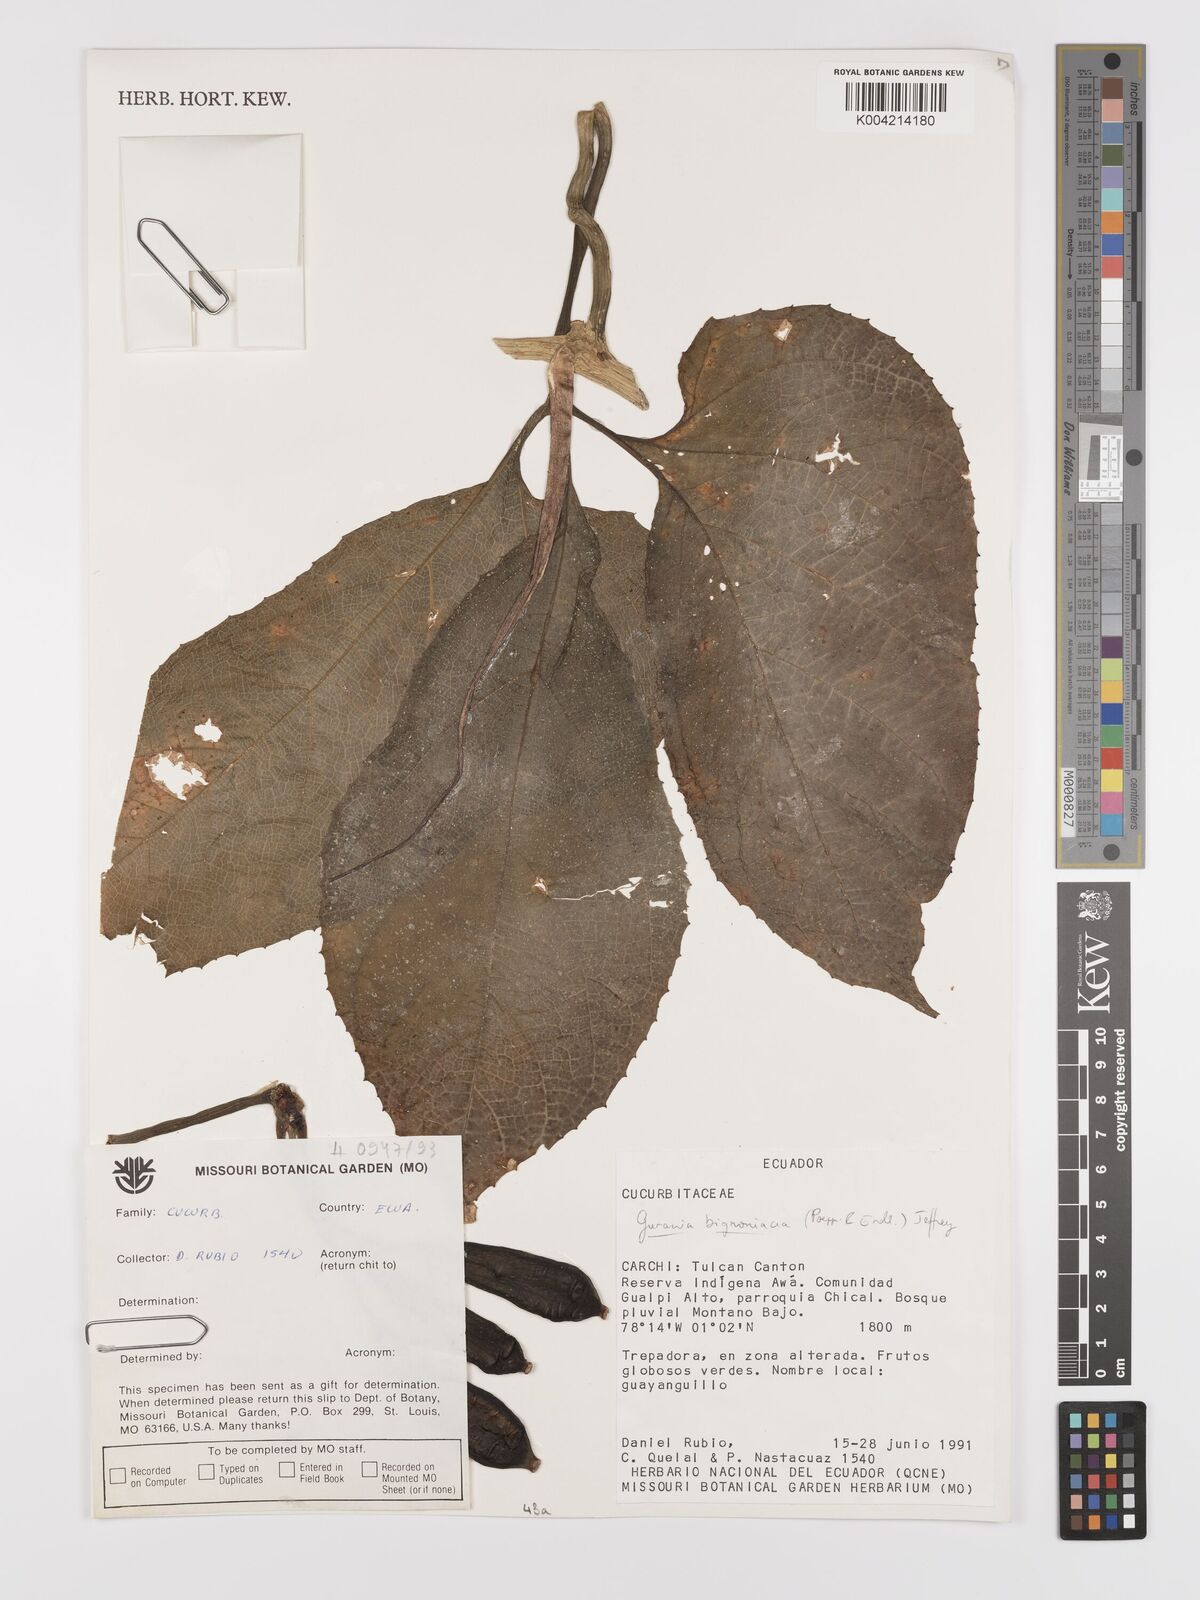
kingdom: Plantae
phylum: Tracheophyta
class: Magnoliopsida
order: Cucurbitales
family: Cucurbitaceae
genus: Gurania
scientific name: Gurania bignoniacea
